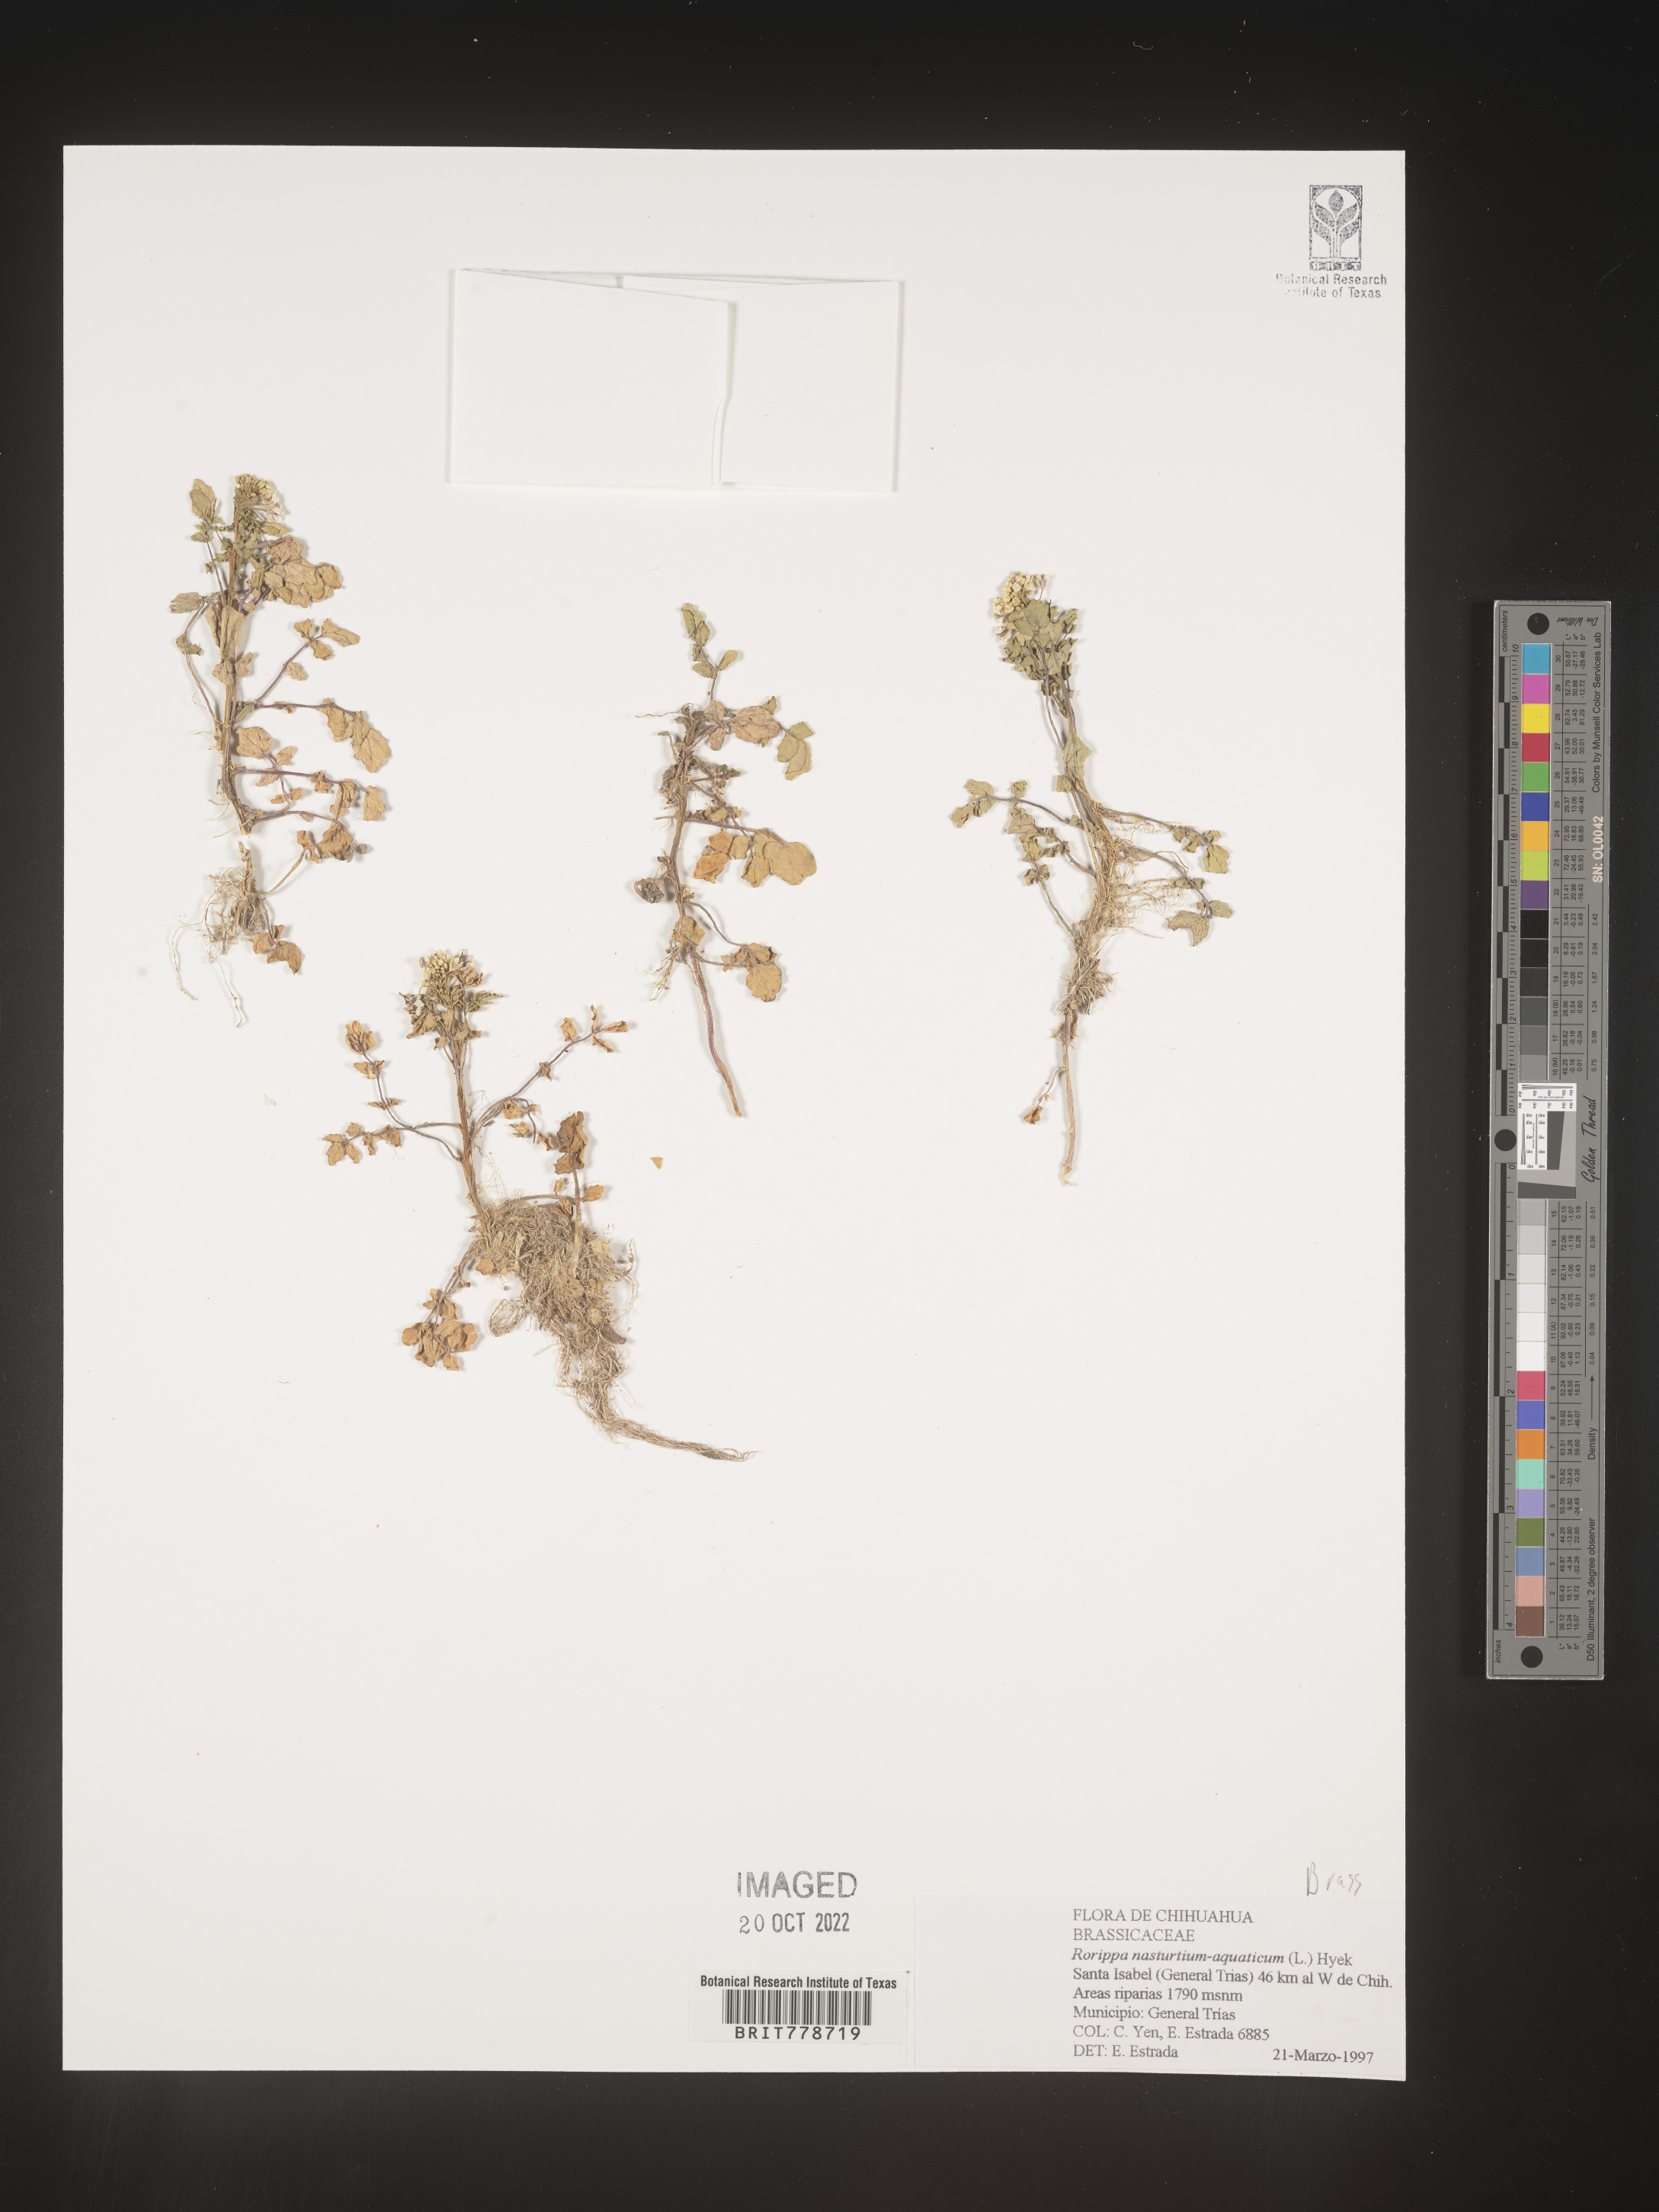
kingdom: Plantae
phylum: Tracheophyta
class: Magnoliopsida
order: Brassicales
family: Brassicaceae
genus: Rorippa
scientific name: Rorippa
